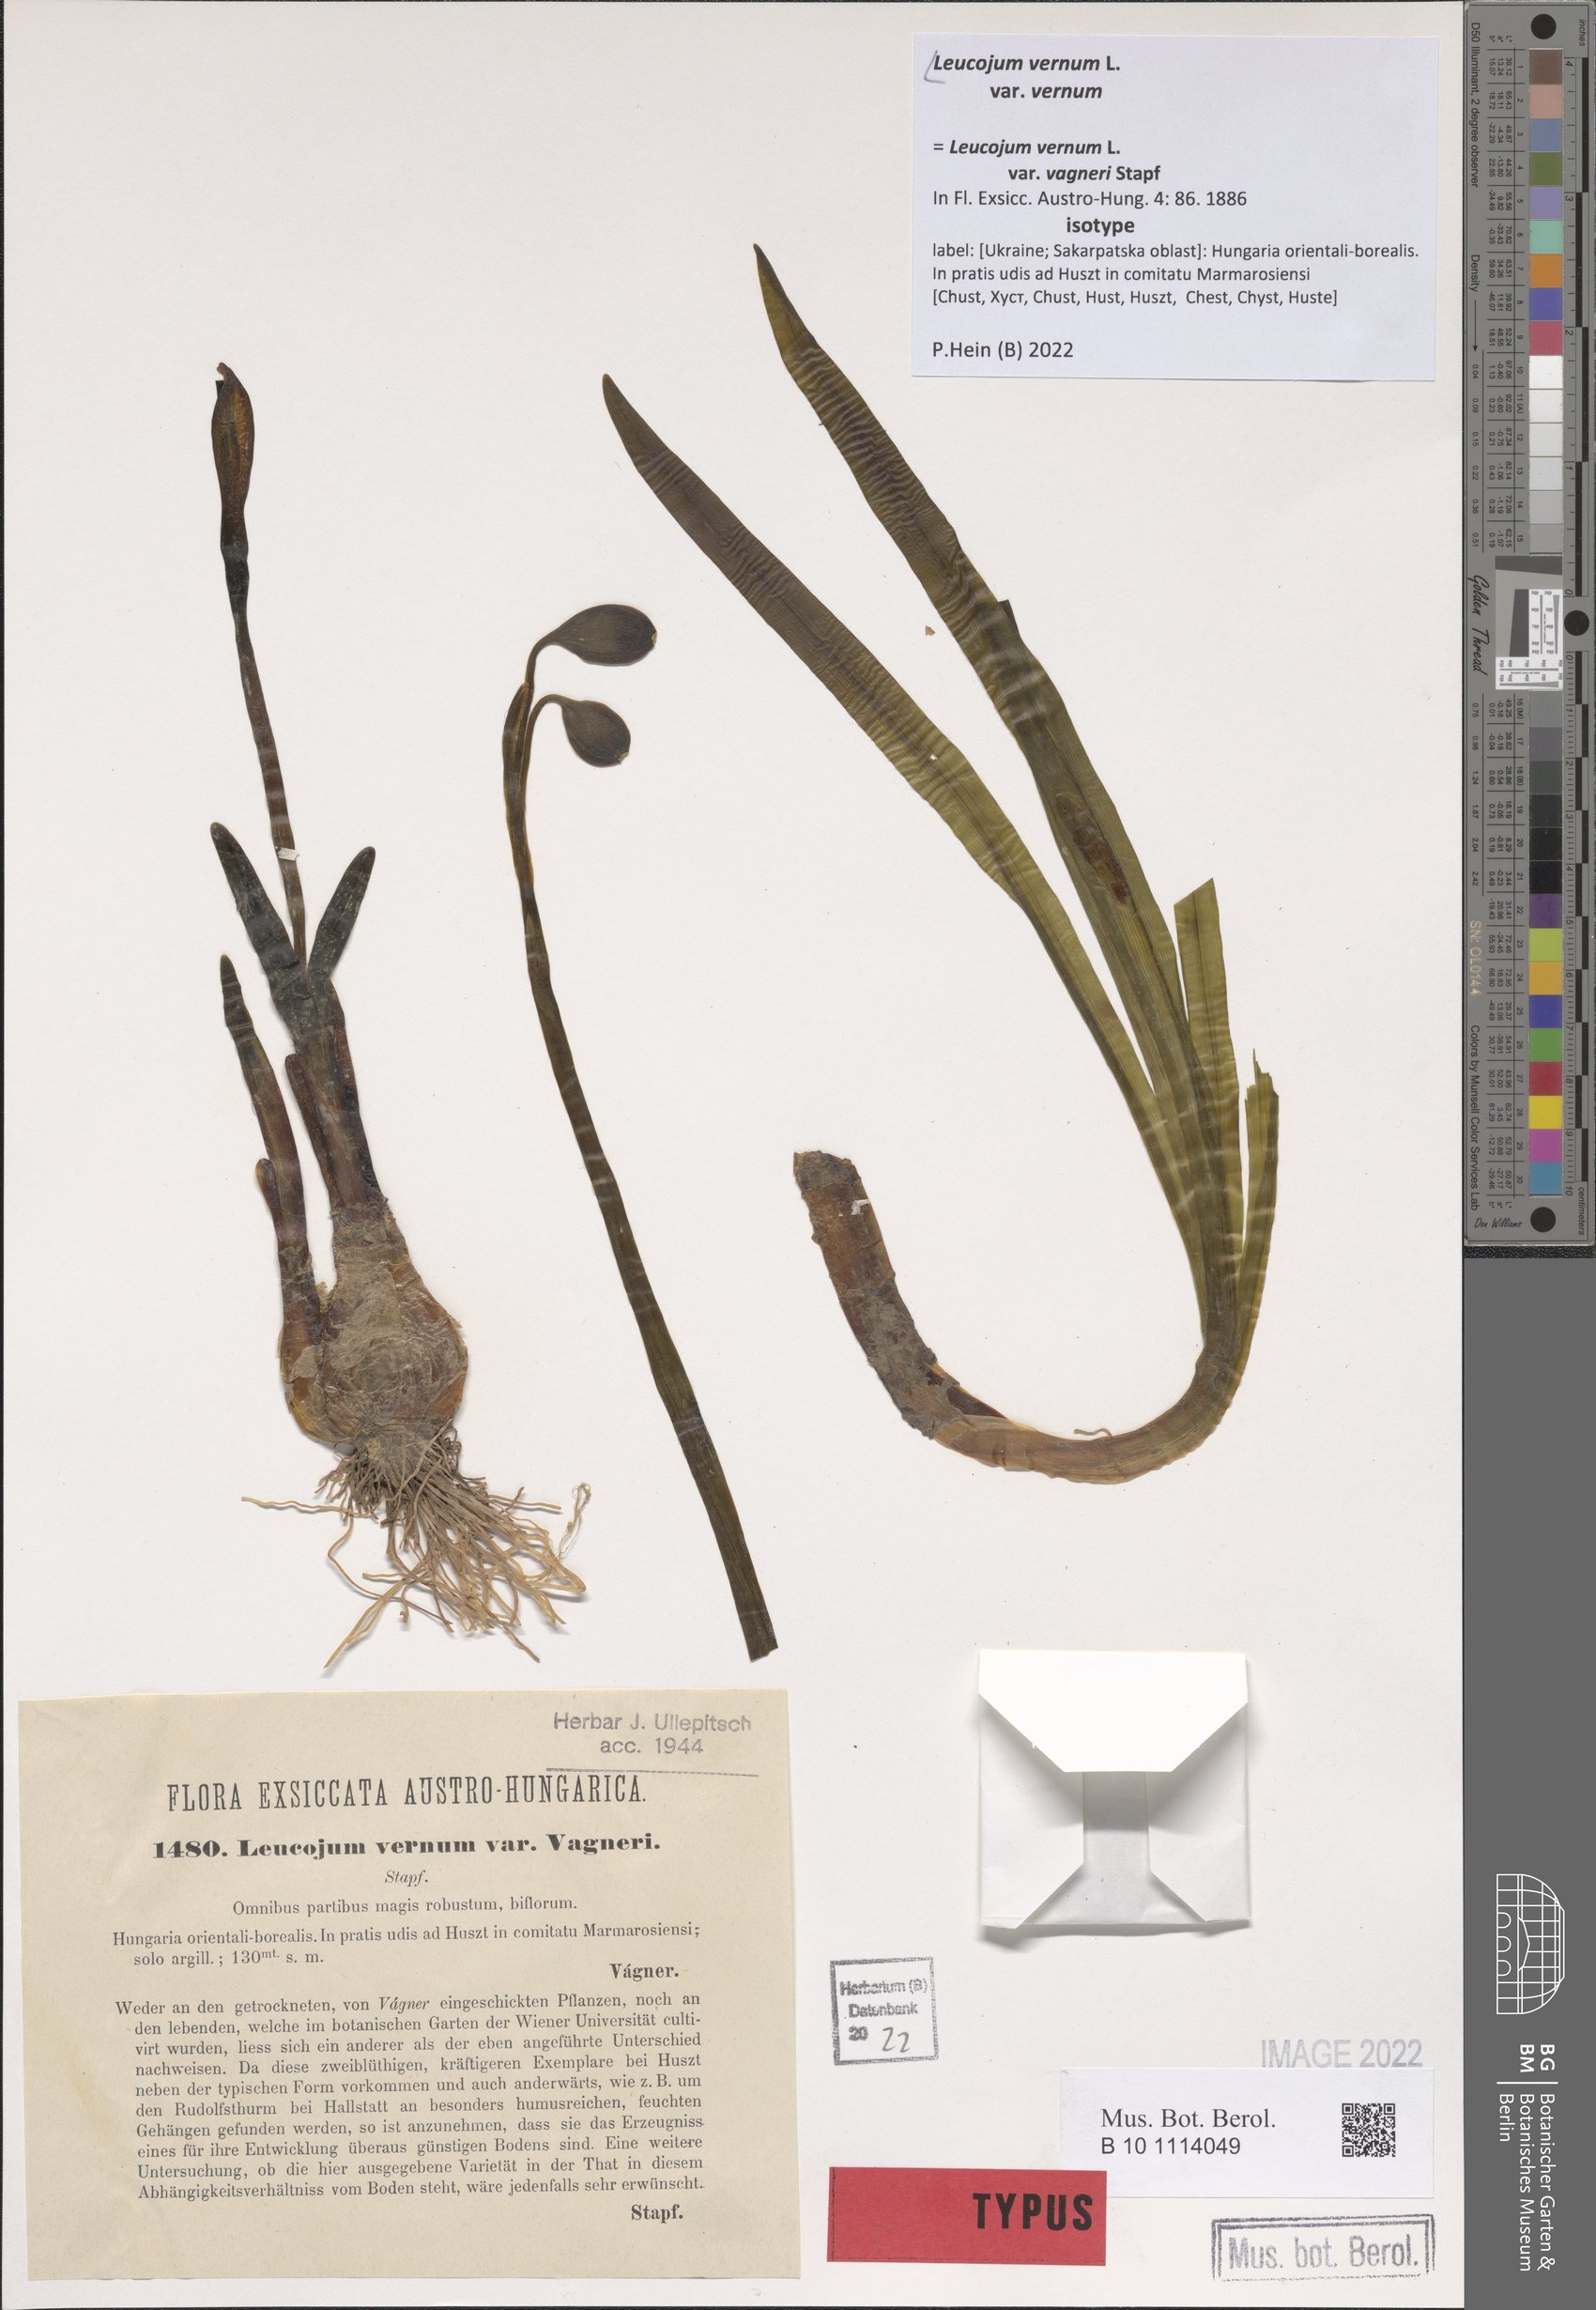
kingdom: Plantae
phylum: Tracheophyta
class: Liliopsida
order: Asparagales
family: Amaryllidaceae
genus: Leucojum
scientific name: Leucojum vernum
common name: Spring snowflake
